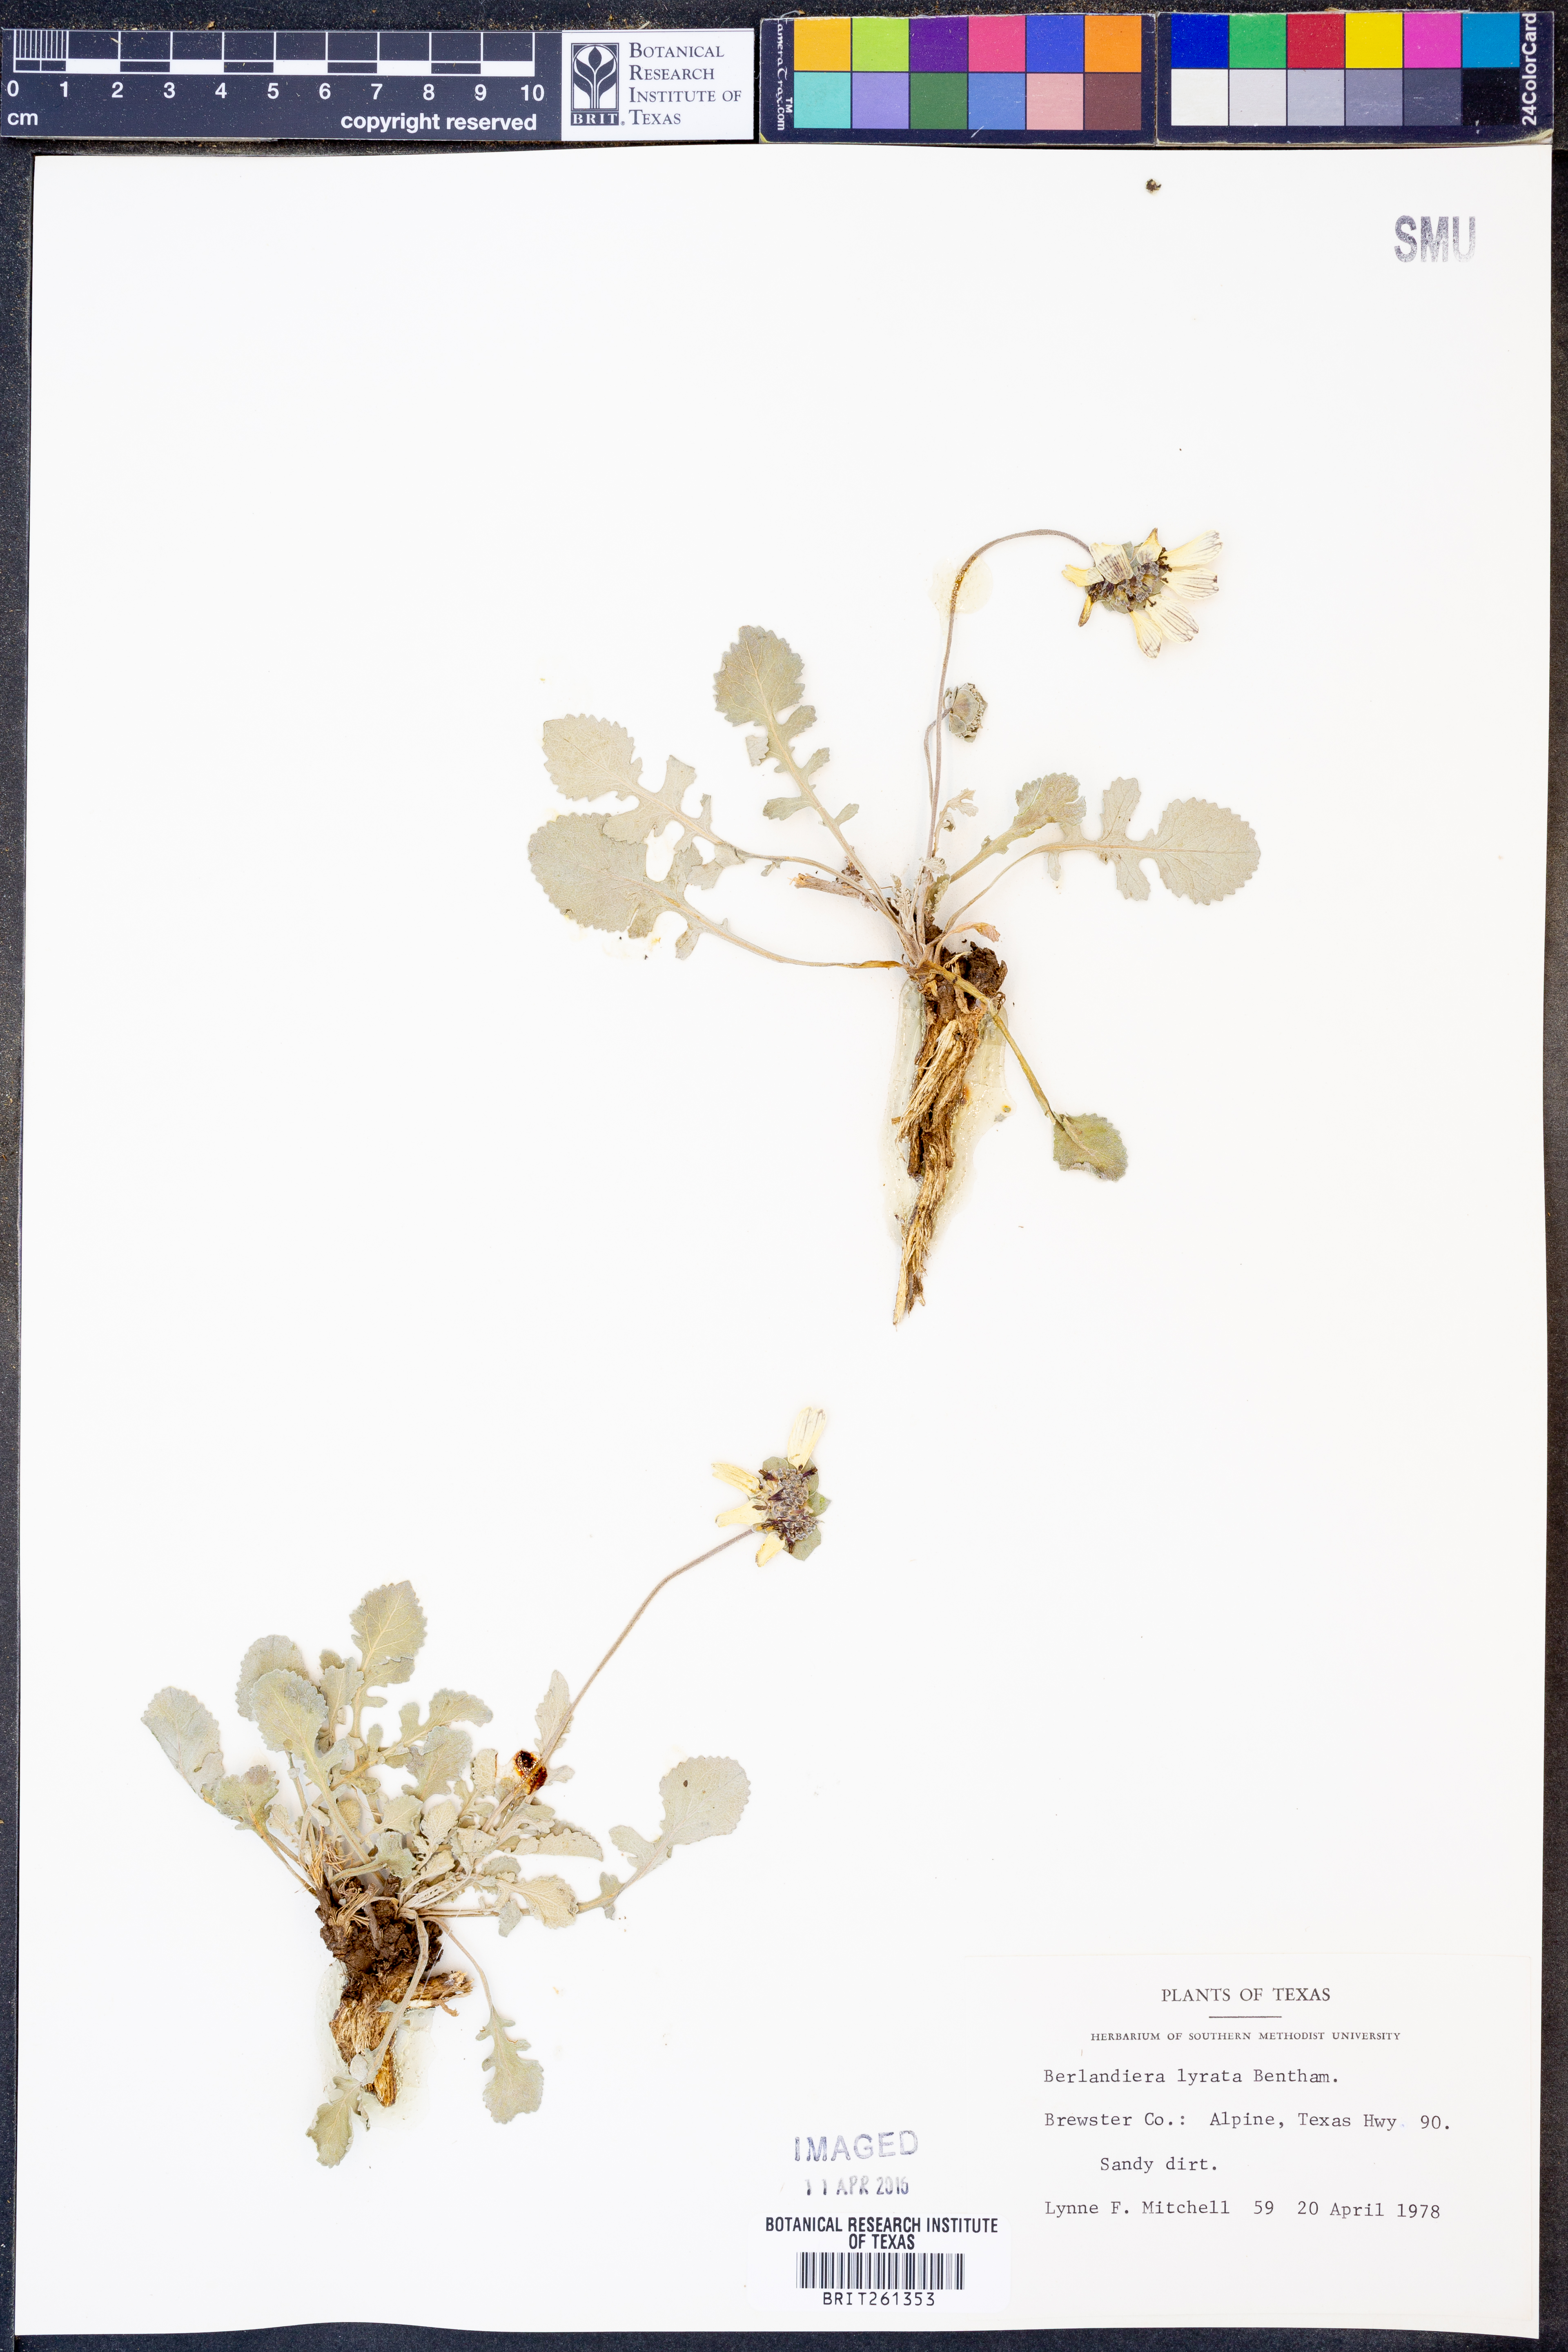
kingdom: Plantae
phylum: Tracheophyta
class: Magnoliopsida
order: Asterales
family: Asteraceae
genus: Berlandiera
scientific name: Berlandiera lyrata
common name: Chocolate-flower
